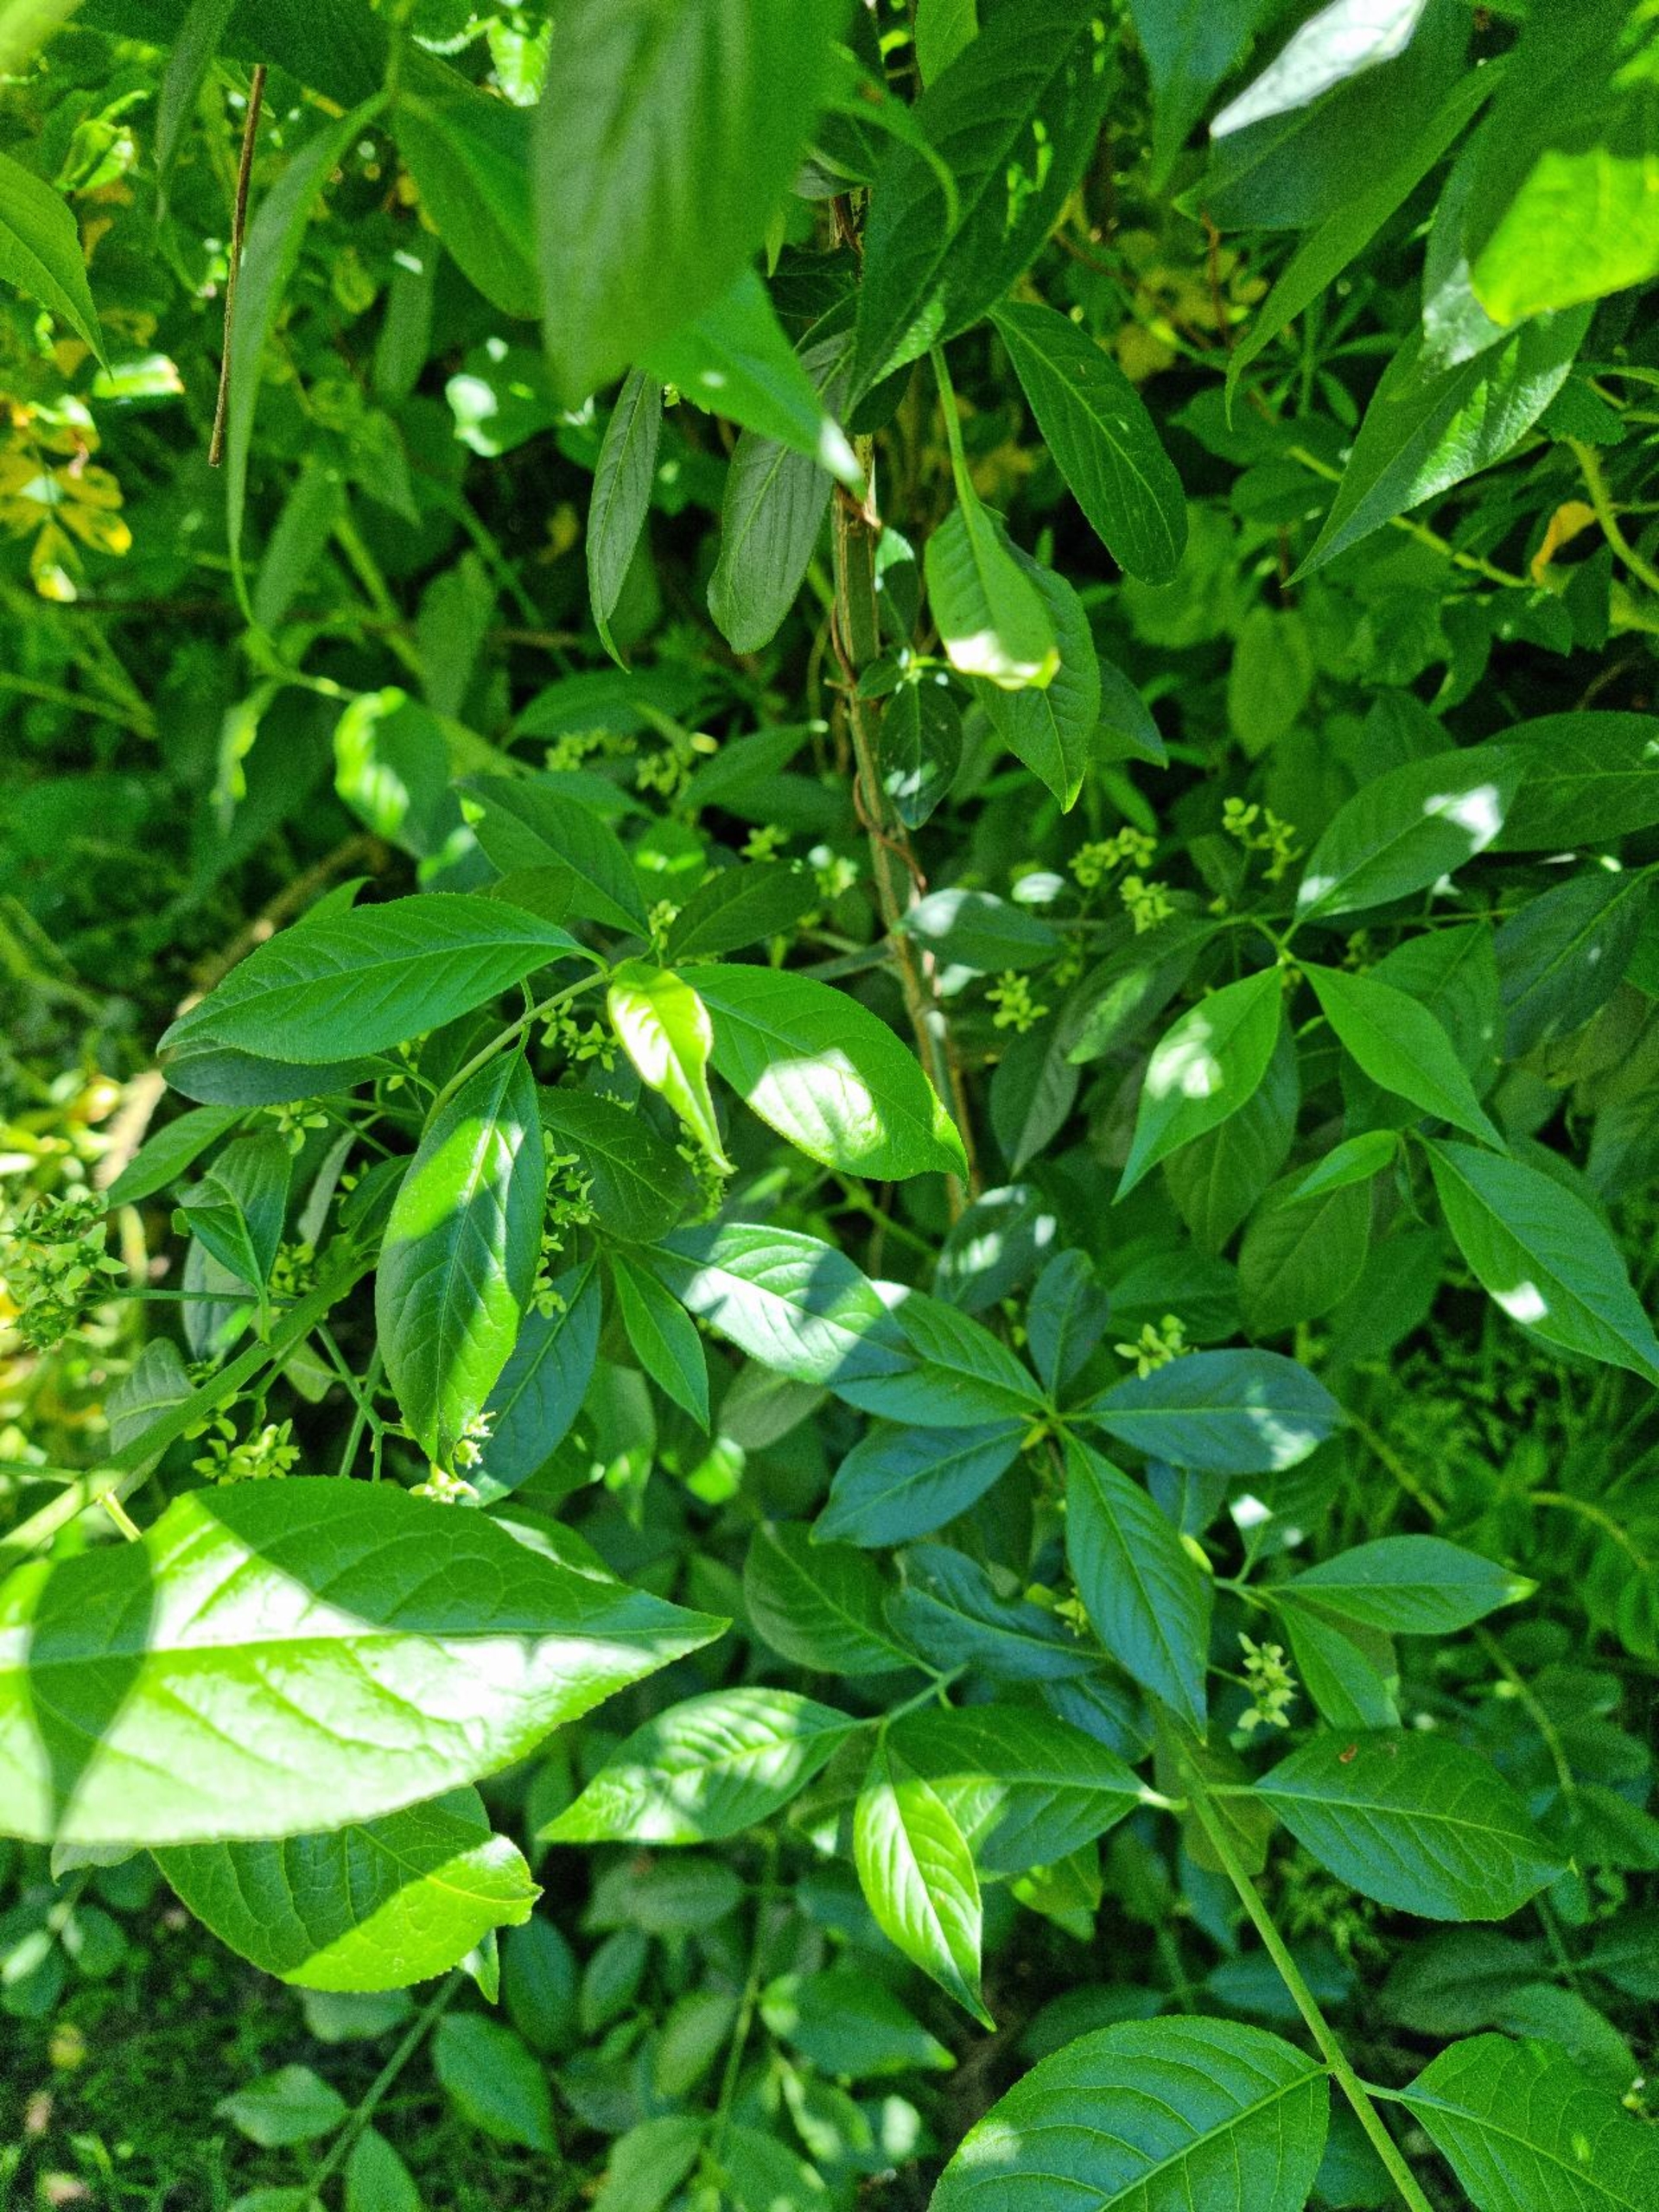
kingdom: Plantae
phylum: Tracheophyta
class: Magnoliopsida
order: Celastrales
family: Celastraceae
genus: Euonymus
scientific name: Euonymus europaeus
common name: Benved
